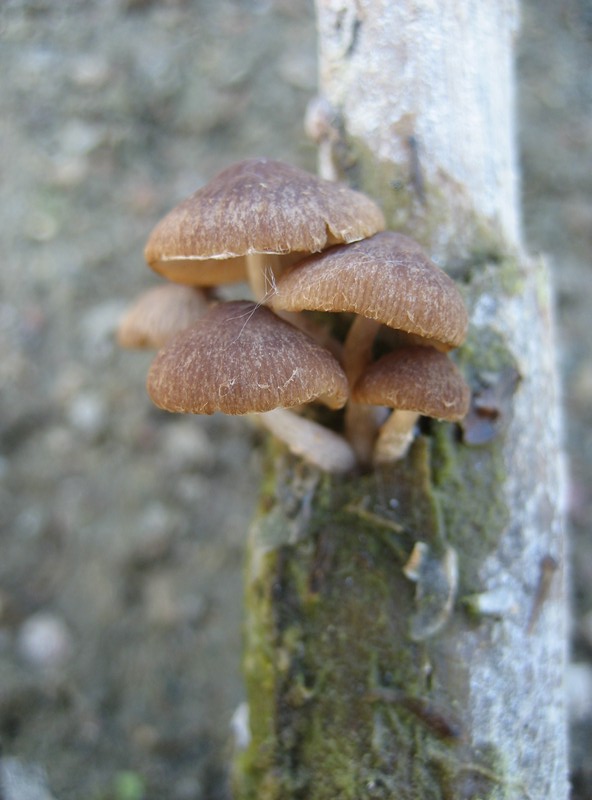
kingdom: Fungi
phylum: Basidiomycota
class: Agaricomycetes
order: Agaricales
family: Psathyrellaceae
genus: Candolleomyces
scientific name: Candolleomyces typhae
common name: dunhammer-mørkhat
